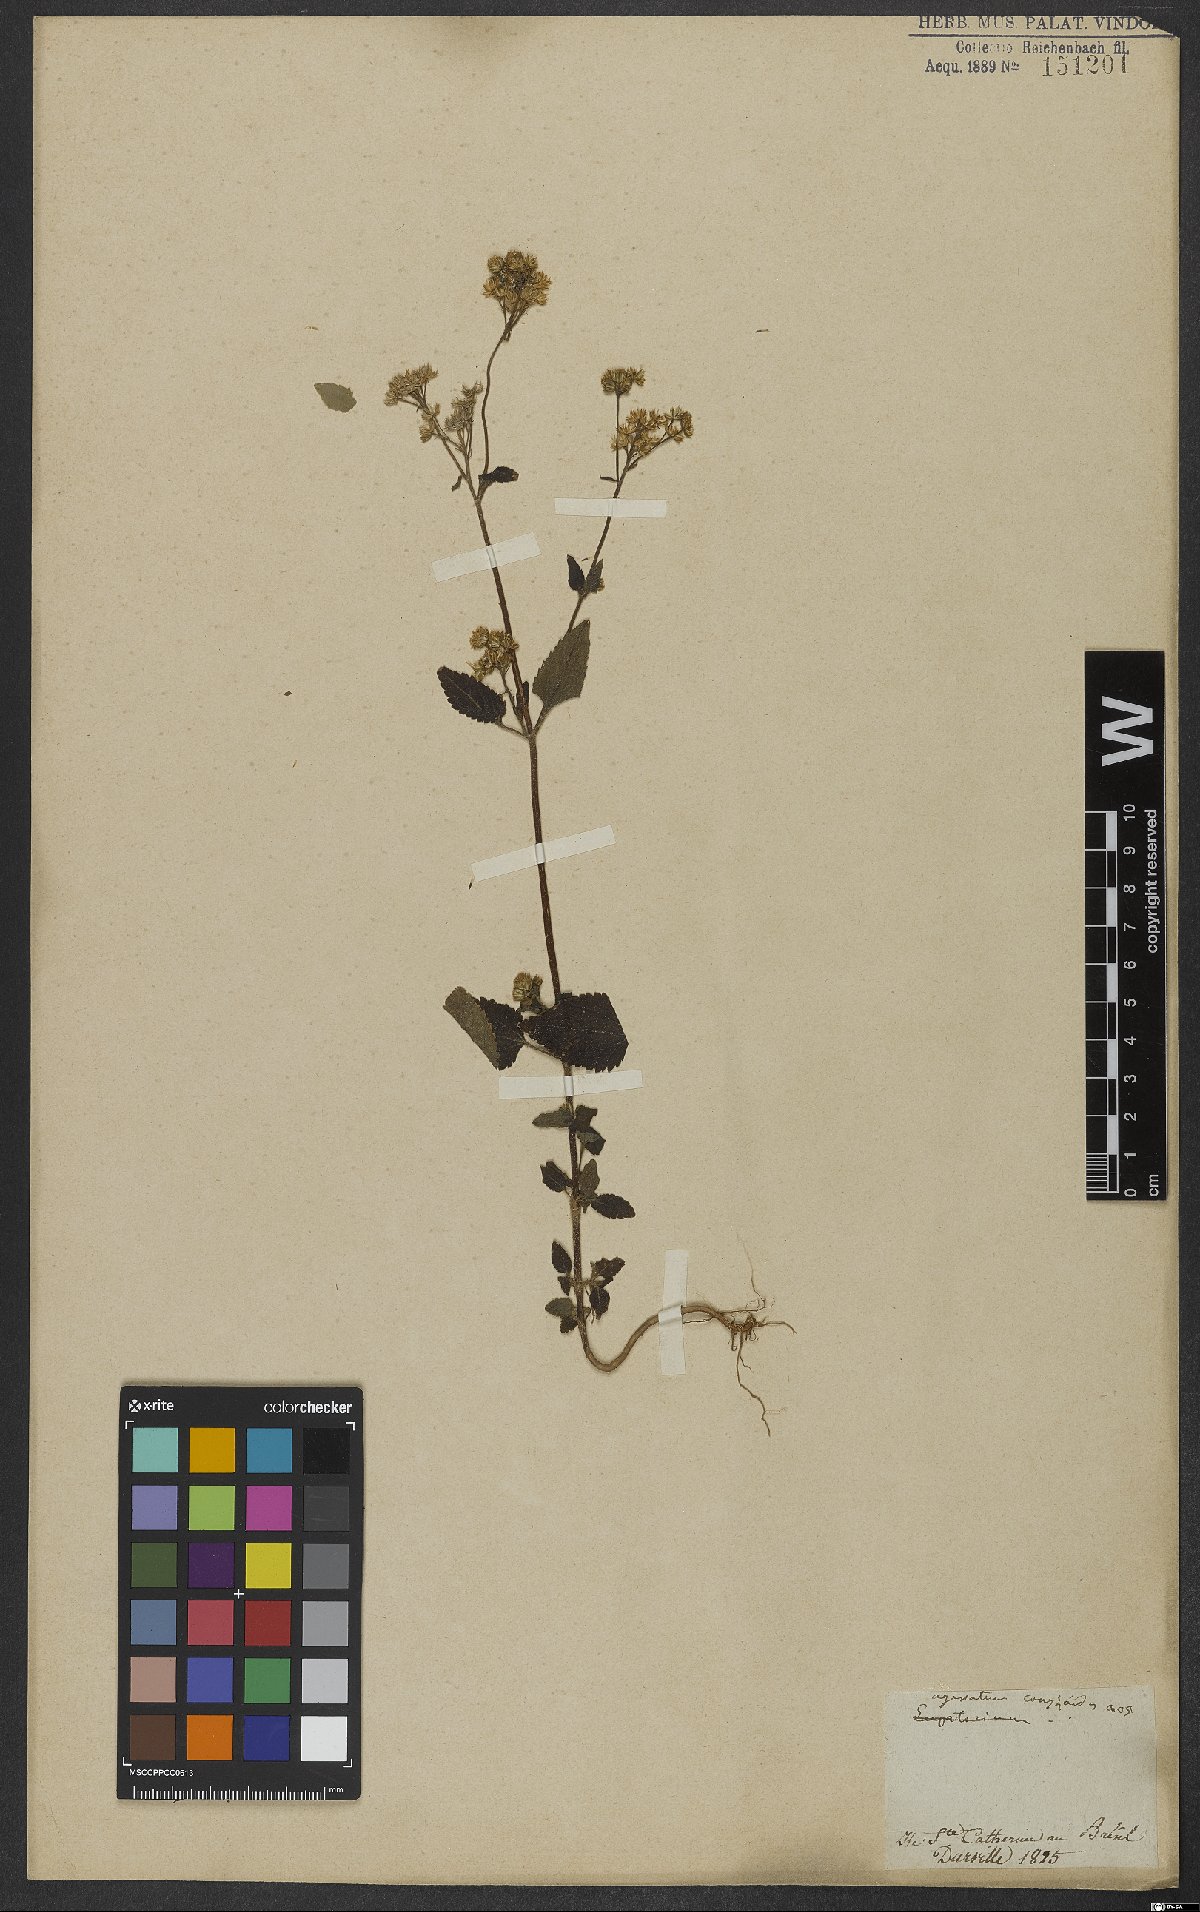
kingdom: Plantae
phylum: Tracheophyta
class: Magnoliopsida
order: Asterales
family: Asteraceae
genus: Ageratum
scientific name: Ageratum conyzoides
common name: Tropical whiteweed
